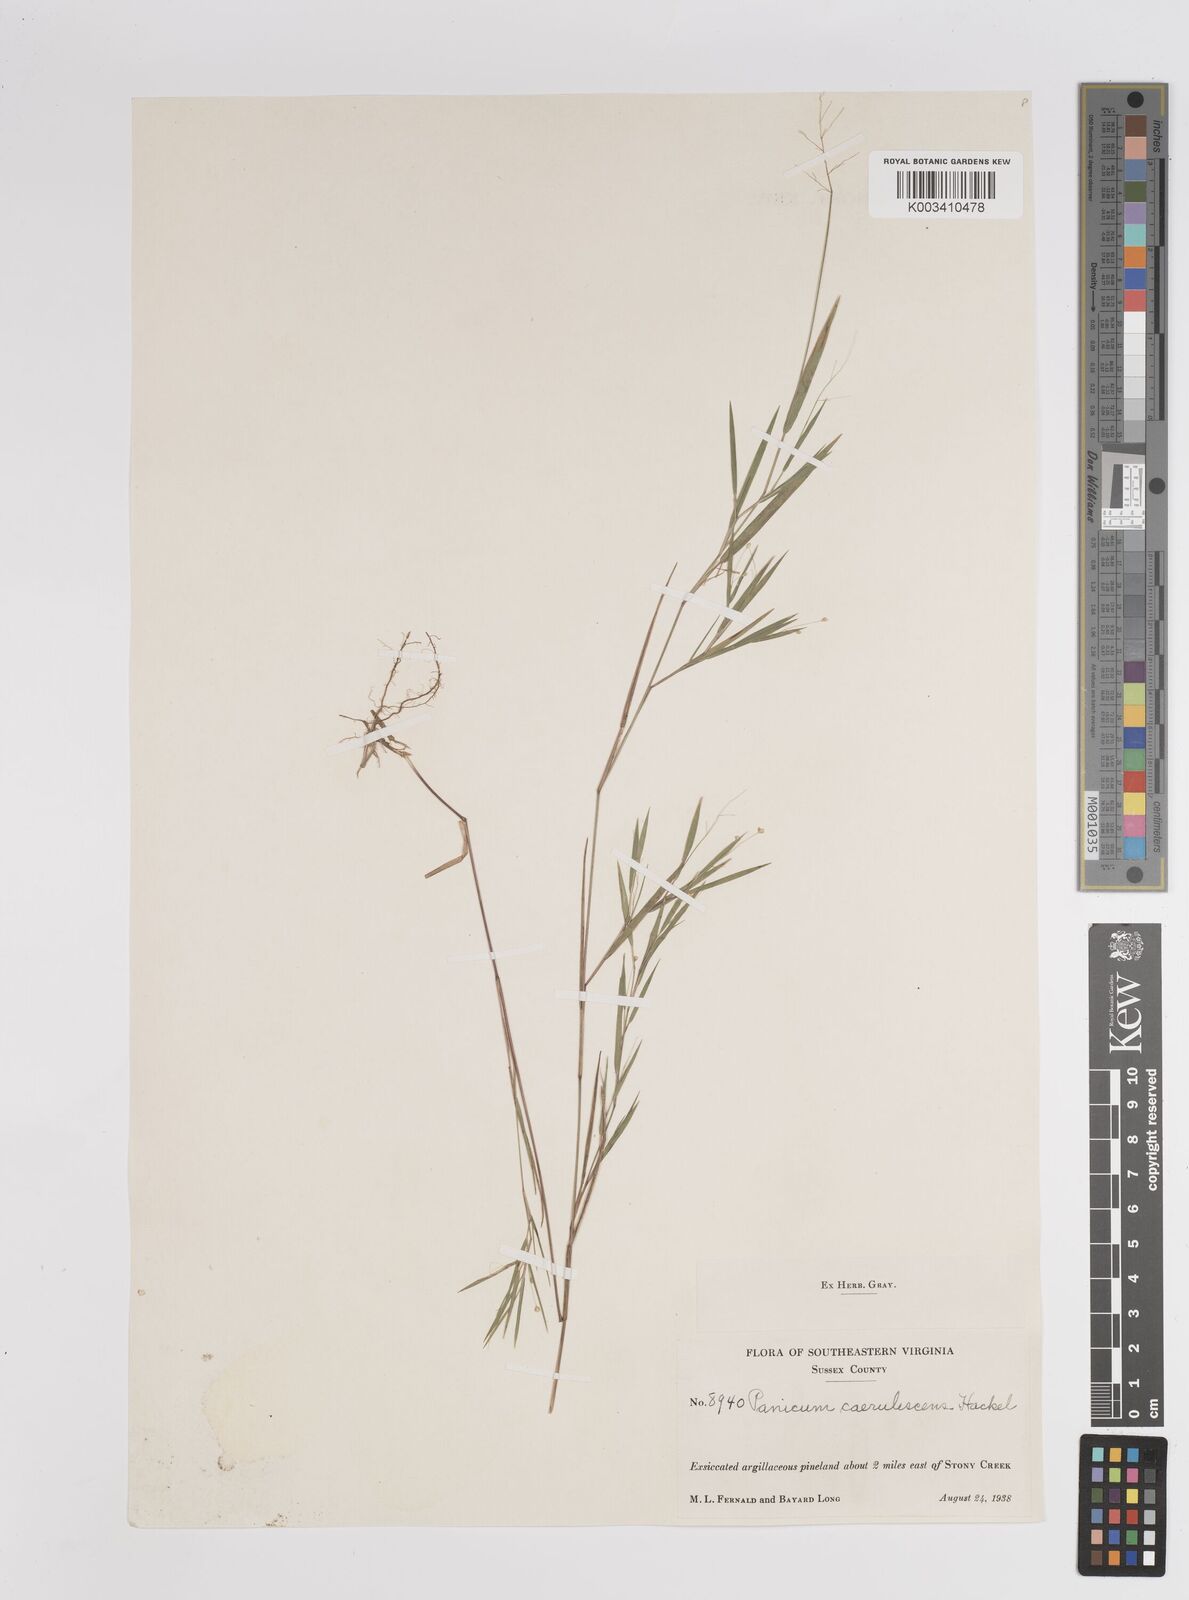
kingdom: Plantae
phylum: Tracheophyta
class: Liliopsida
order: Poales
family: Poaceae
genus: Dichanthelium
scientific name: Dichanthelium dichotomum
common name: Cypress panicgrass
